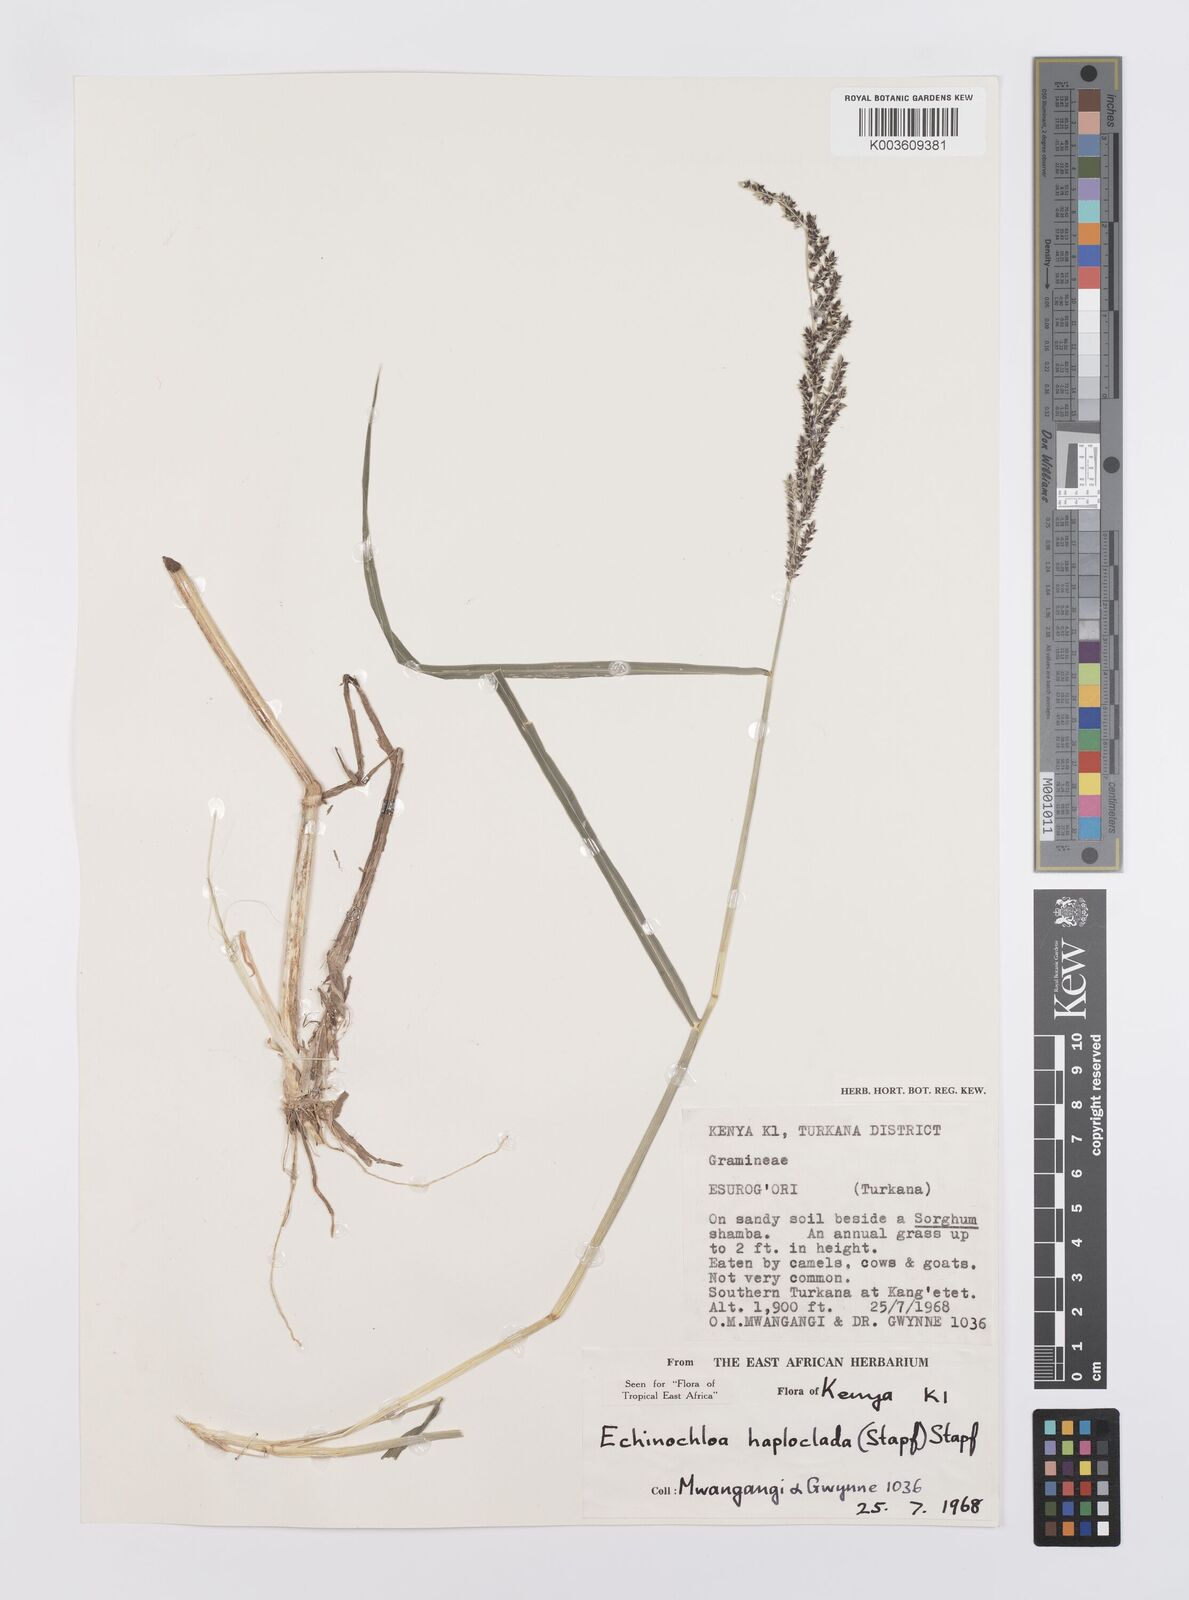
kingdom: Plantae
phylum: Tracheophyta
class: Liliopsida
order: Poales
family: Poaceae
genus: Echinochloa
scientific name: Echinochloa haploclada
